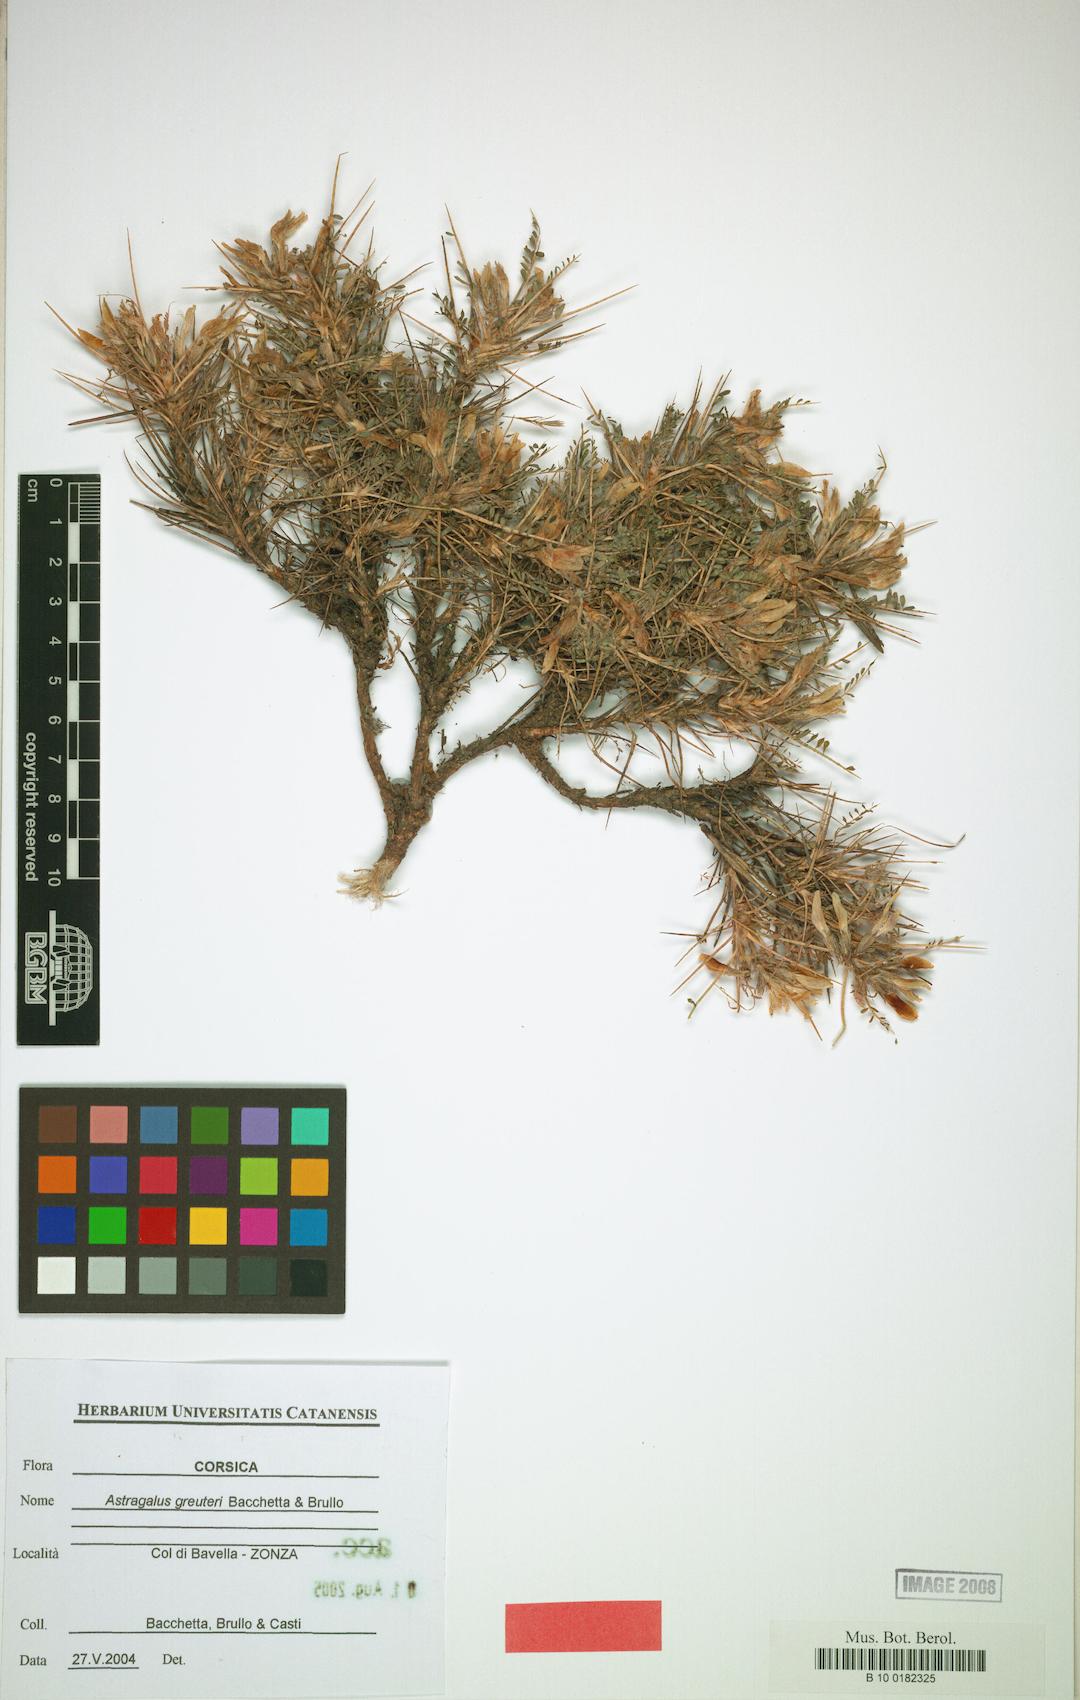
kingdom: Plantae
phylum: Tracheophyta
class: Magnoliopsida
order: Fabales
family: Fabaceae
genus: Astragalus
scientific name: Astragalus greuteri
